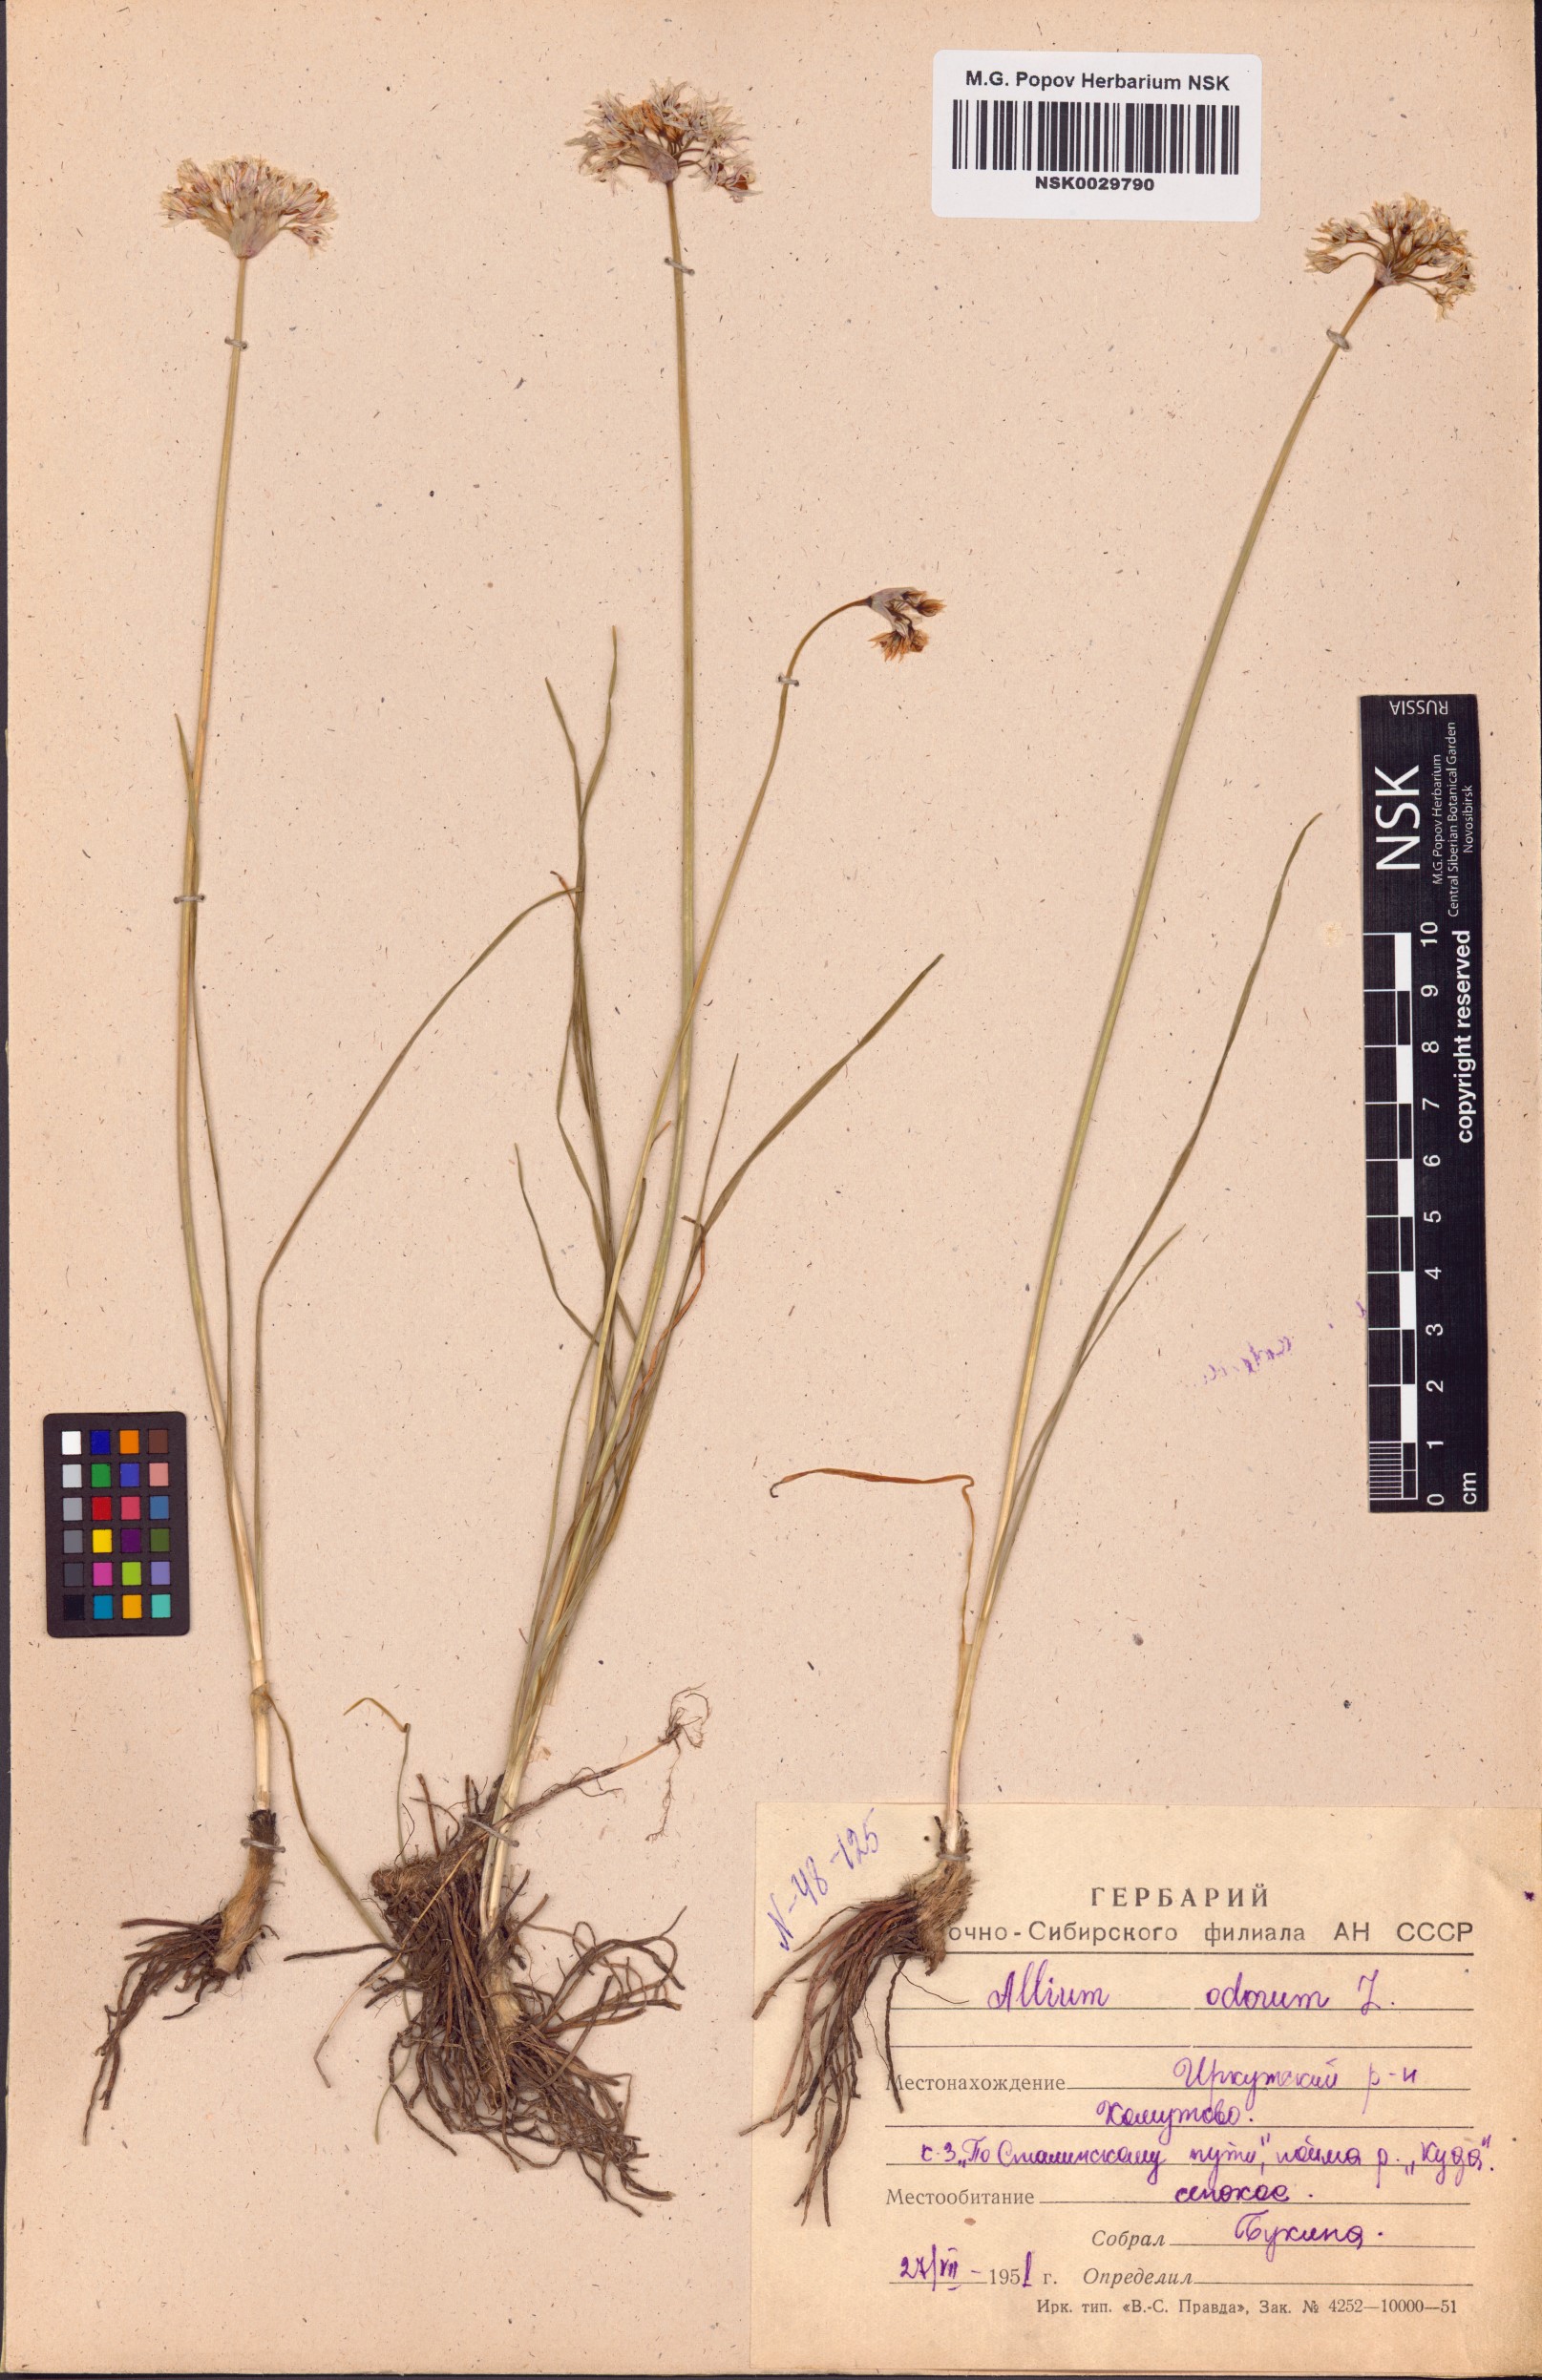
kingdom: Plantae
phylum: Tracheophyta
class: Liliopsida
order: Asparagales
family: Amaryllidaceae
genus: Allium
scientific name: Allium ramosum
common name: Fragrant garlic
